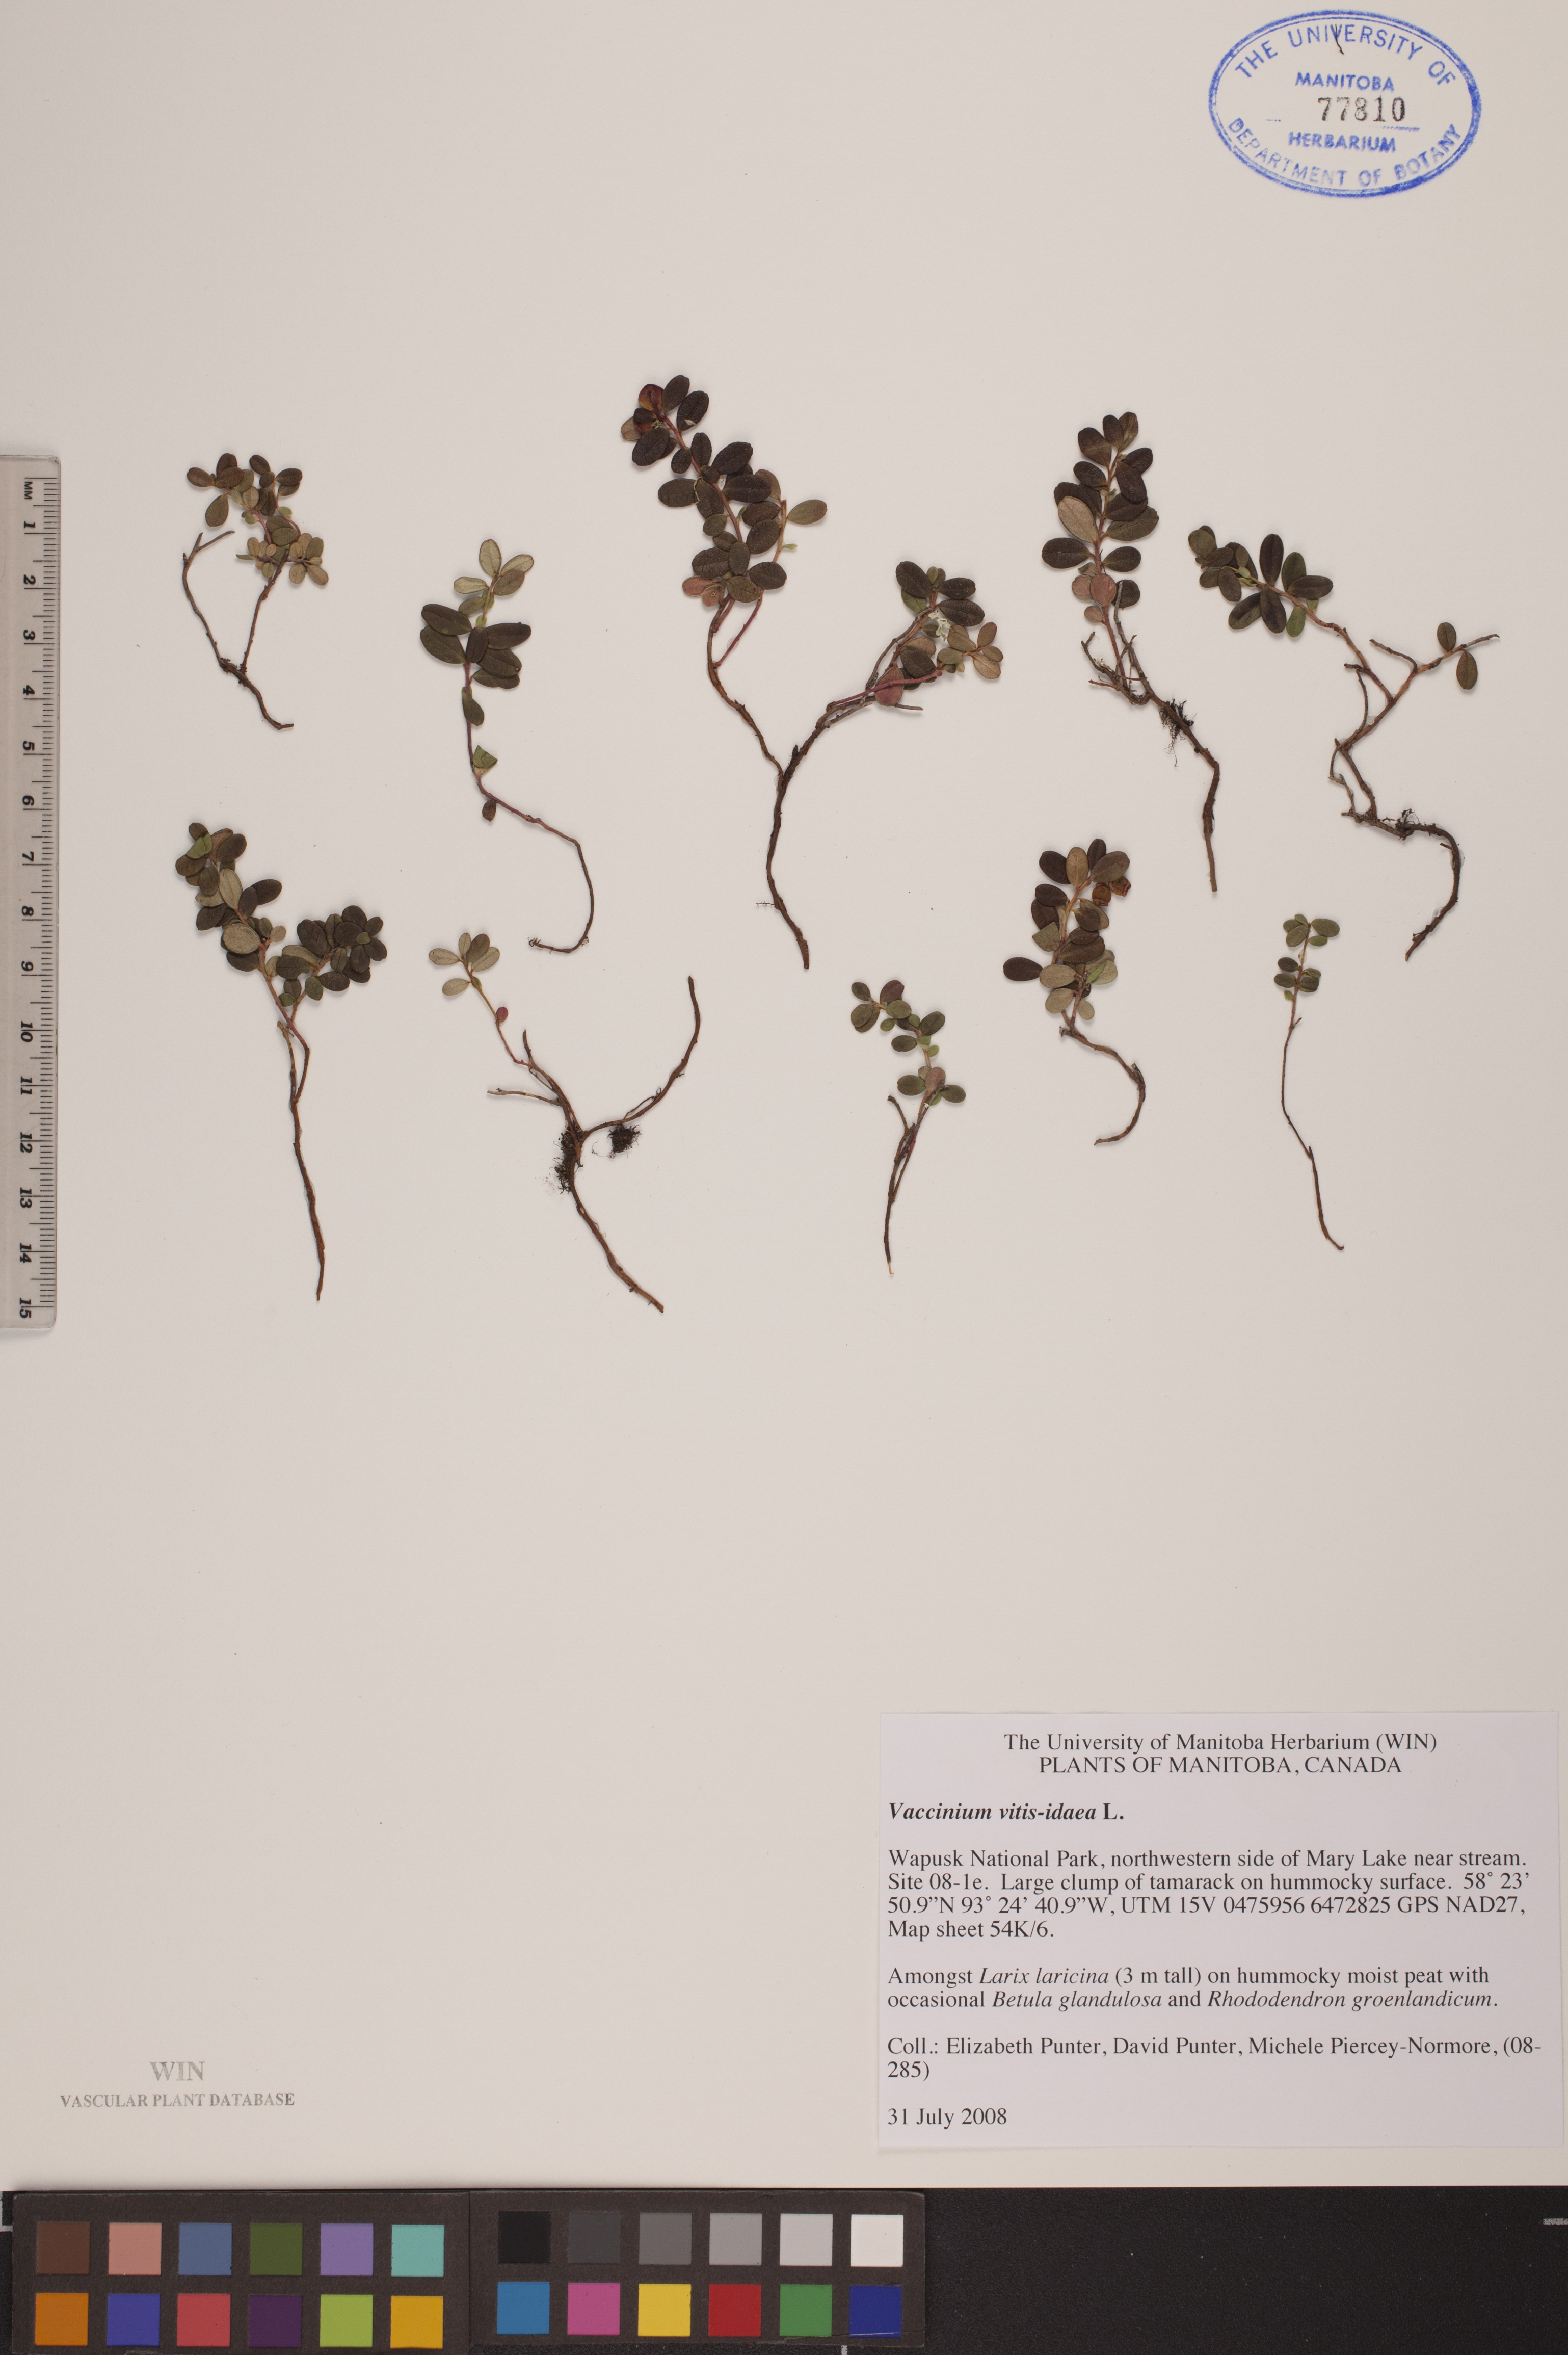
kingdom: Plantae
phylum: Tracheophyta
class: Magnoliopsida
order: Ericales
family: Ericaceae
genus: Vaccinium
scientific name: Vaccinium vitis-idaea
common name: Cowberry
